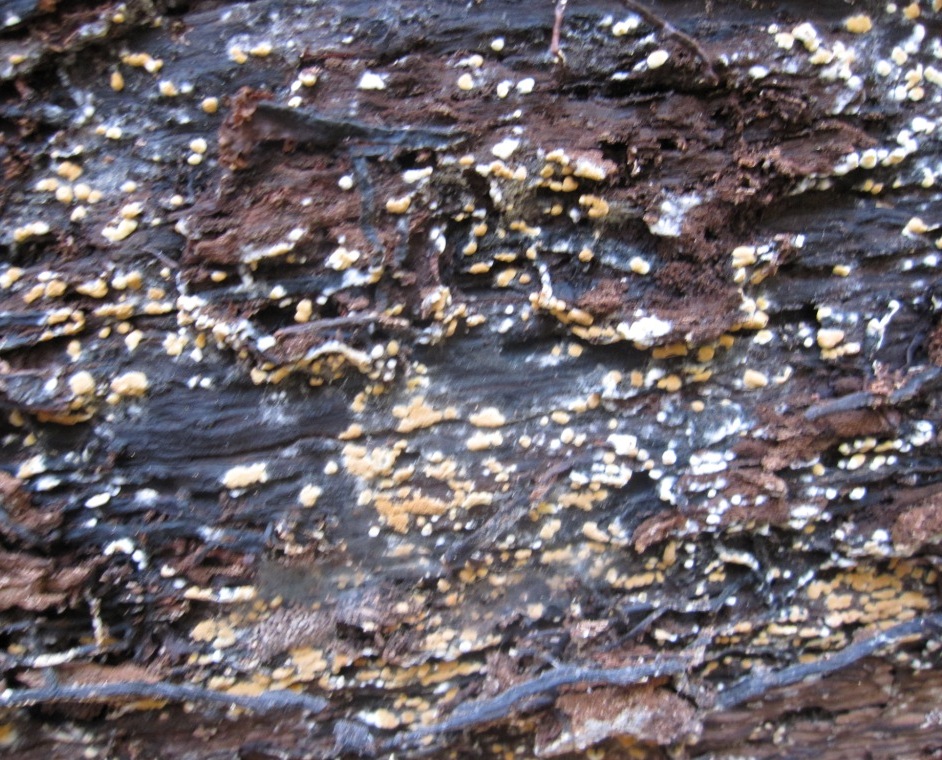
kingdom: Fungi
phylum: Basidiomycota
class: Agaricomycetes
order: Cantharellales
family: Botryobasidiaceae
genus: Botryobasidium
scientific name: Botryobasidium aureum
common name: gylden spindhinde
